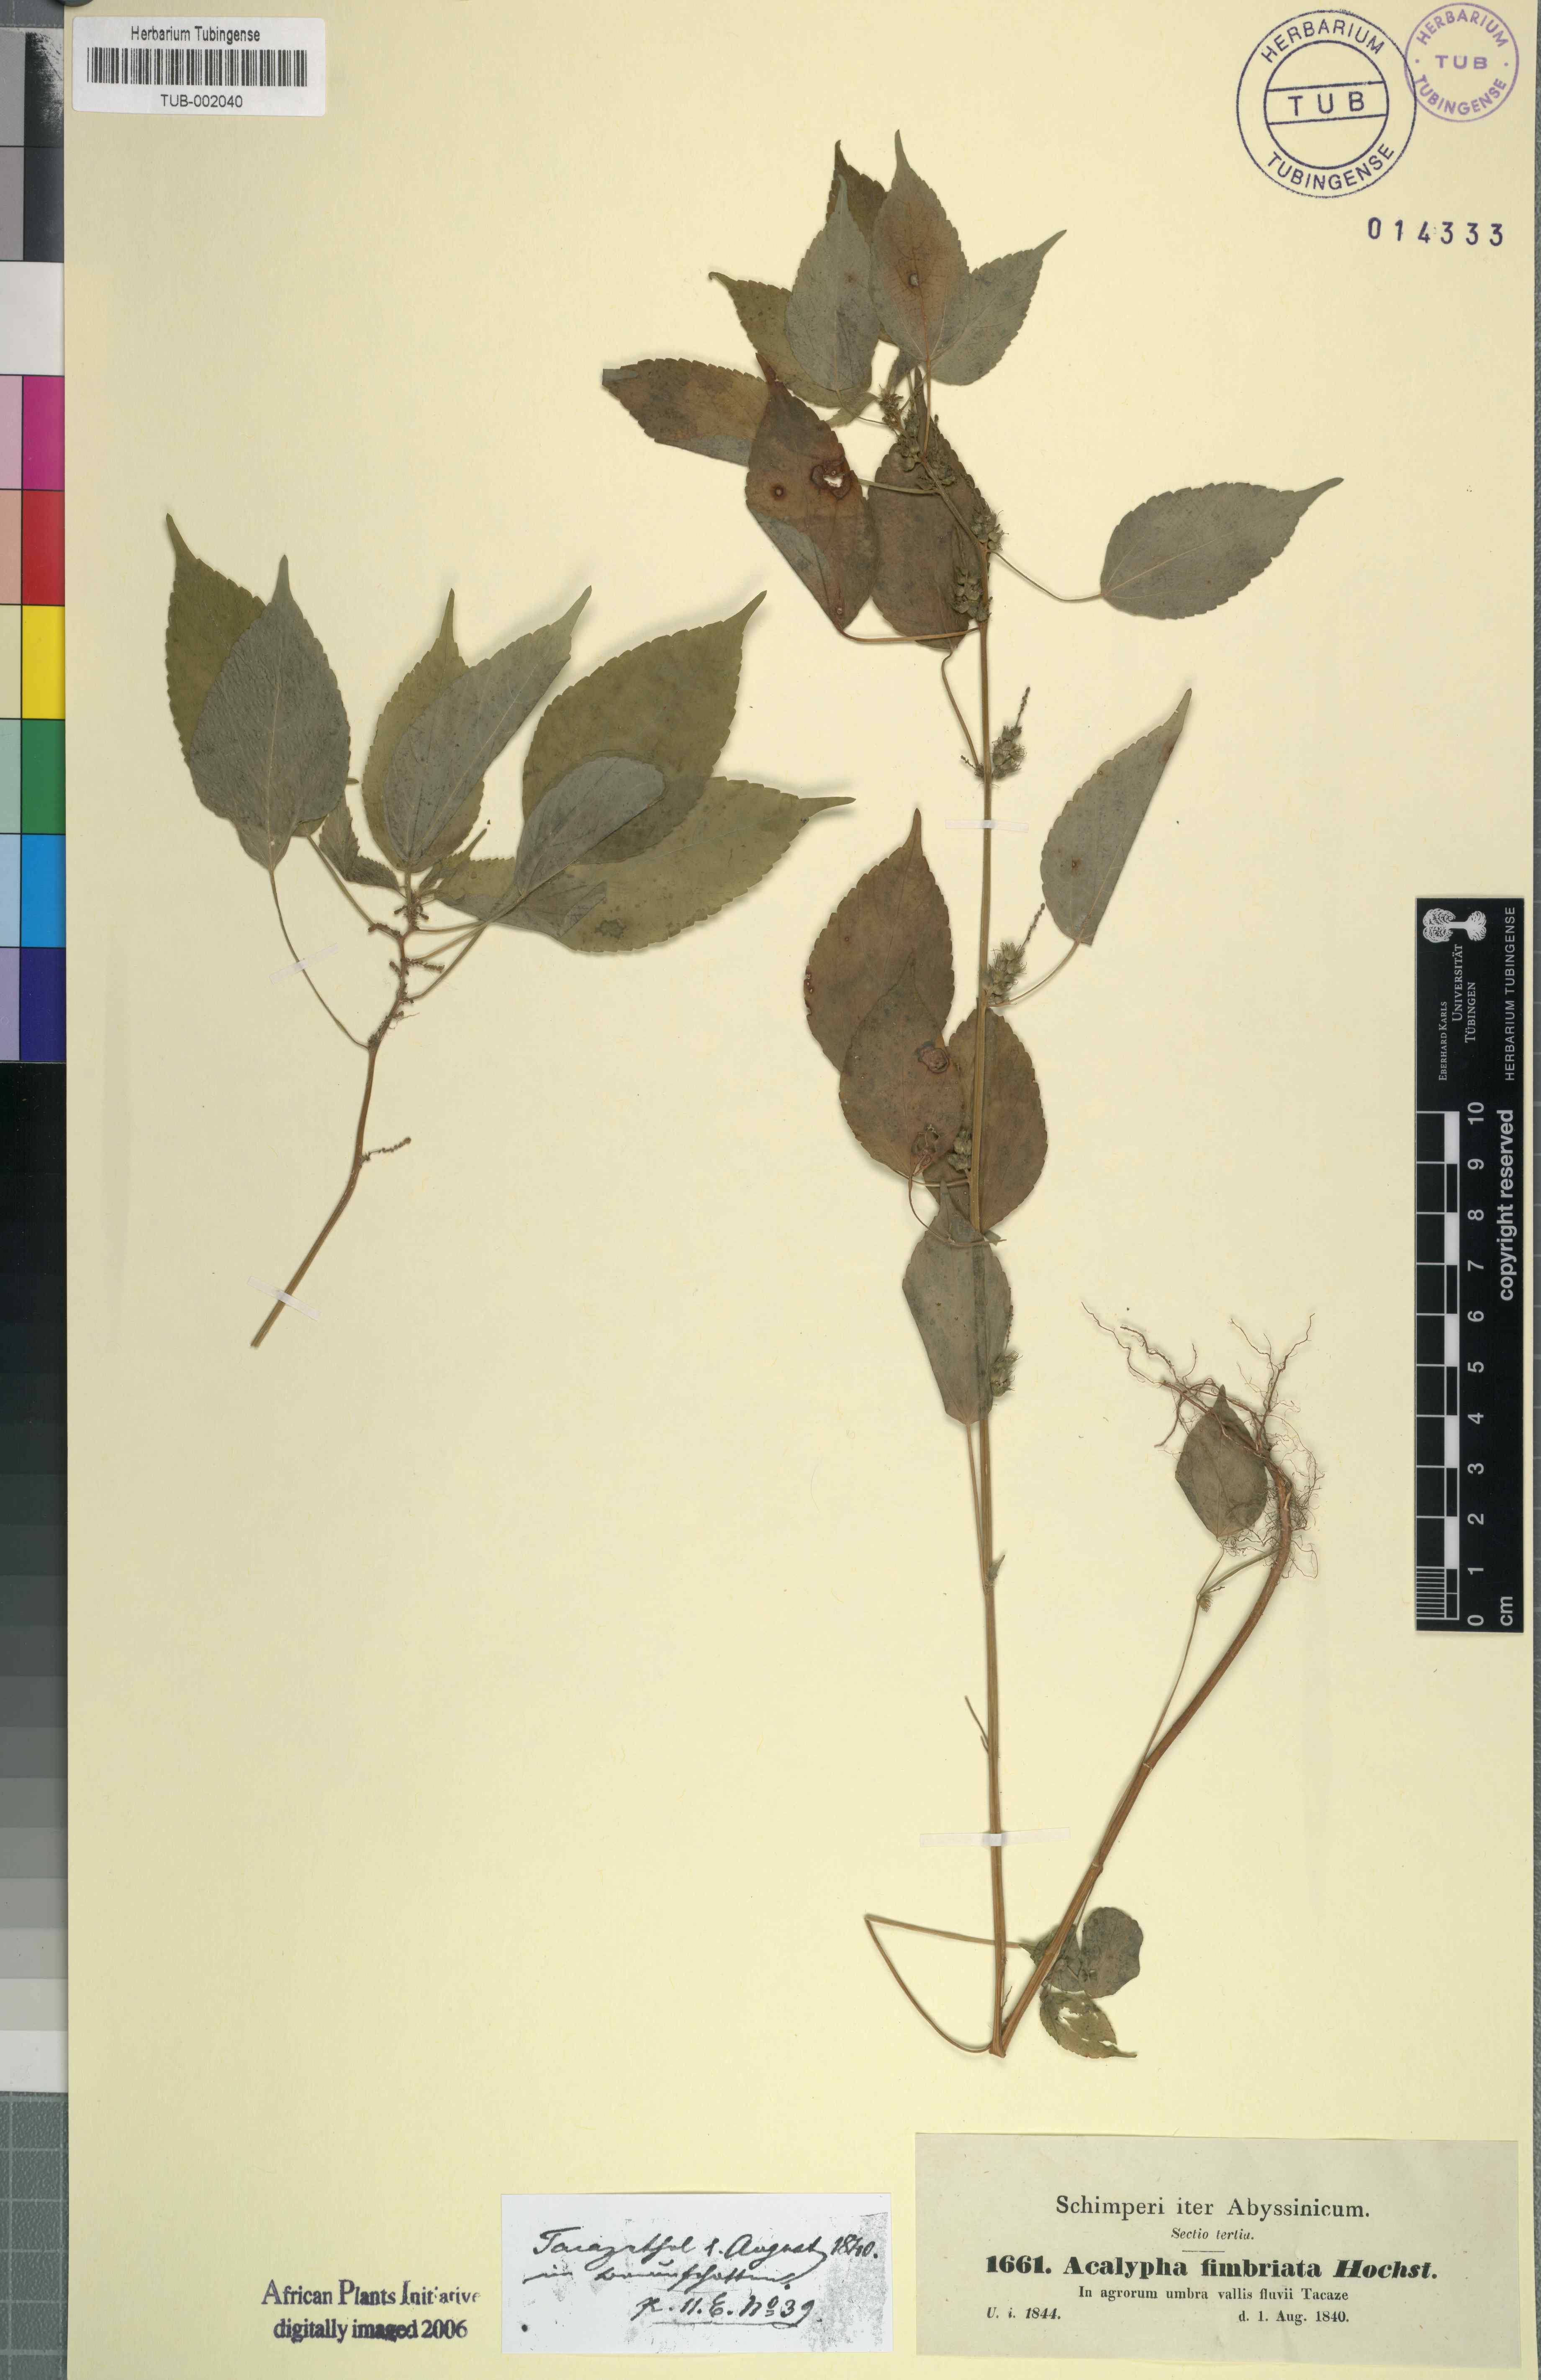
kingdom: Plantae
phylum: Tracheophyta
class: Magnoliopsida
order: Malpighiales
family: Euphorbiaceae
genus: Acalypha
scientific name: Acalypha fimbriata
